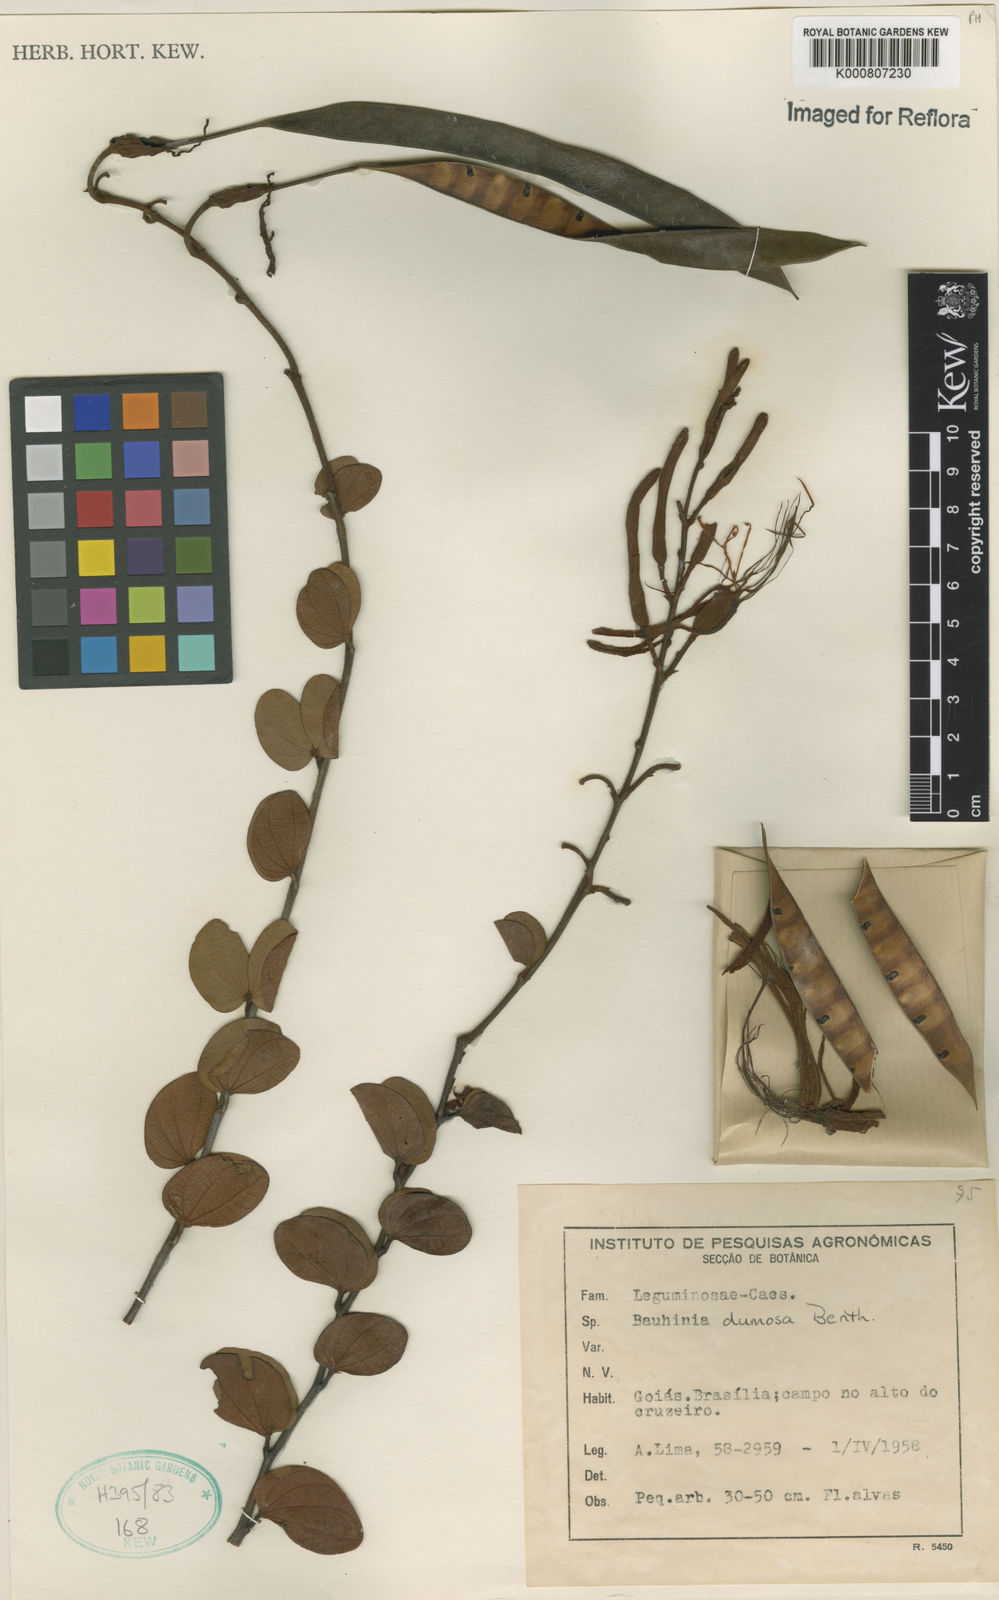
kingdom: Plantae
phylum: Tracheophyta
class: Magnoliopsida
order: Fabales
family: Fabaceae
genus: Bauhinia
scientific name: Bauhinia dumosa
